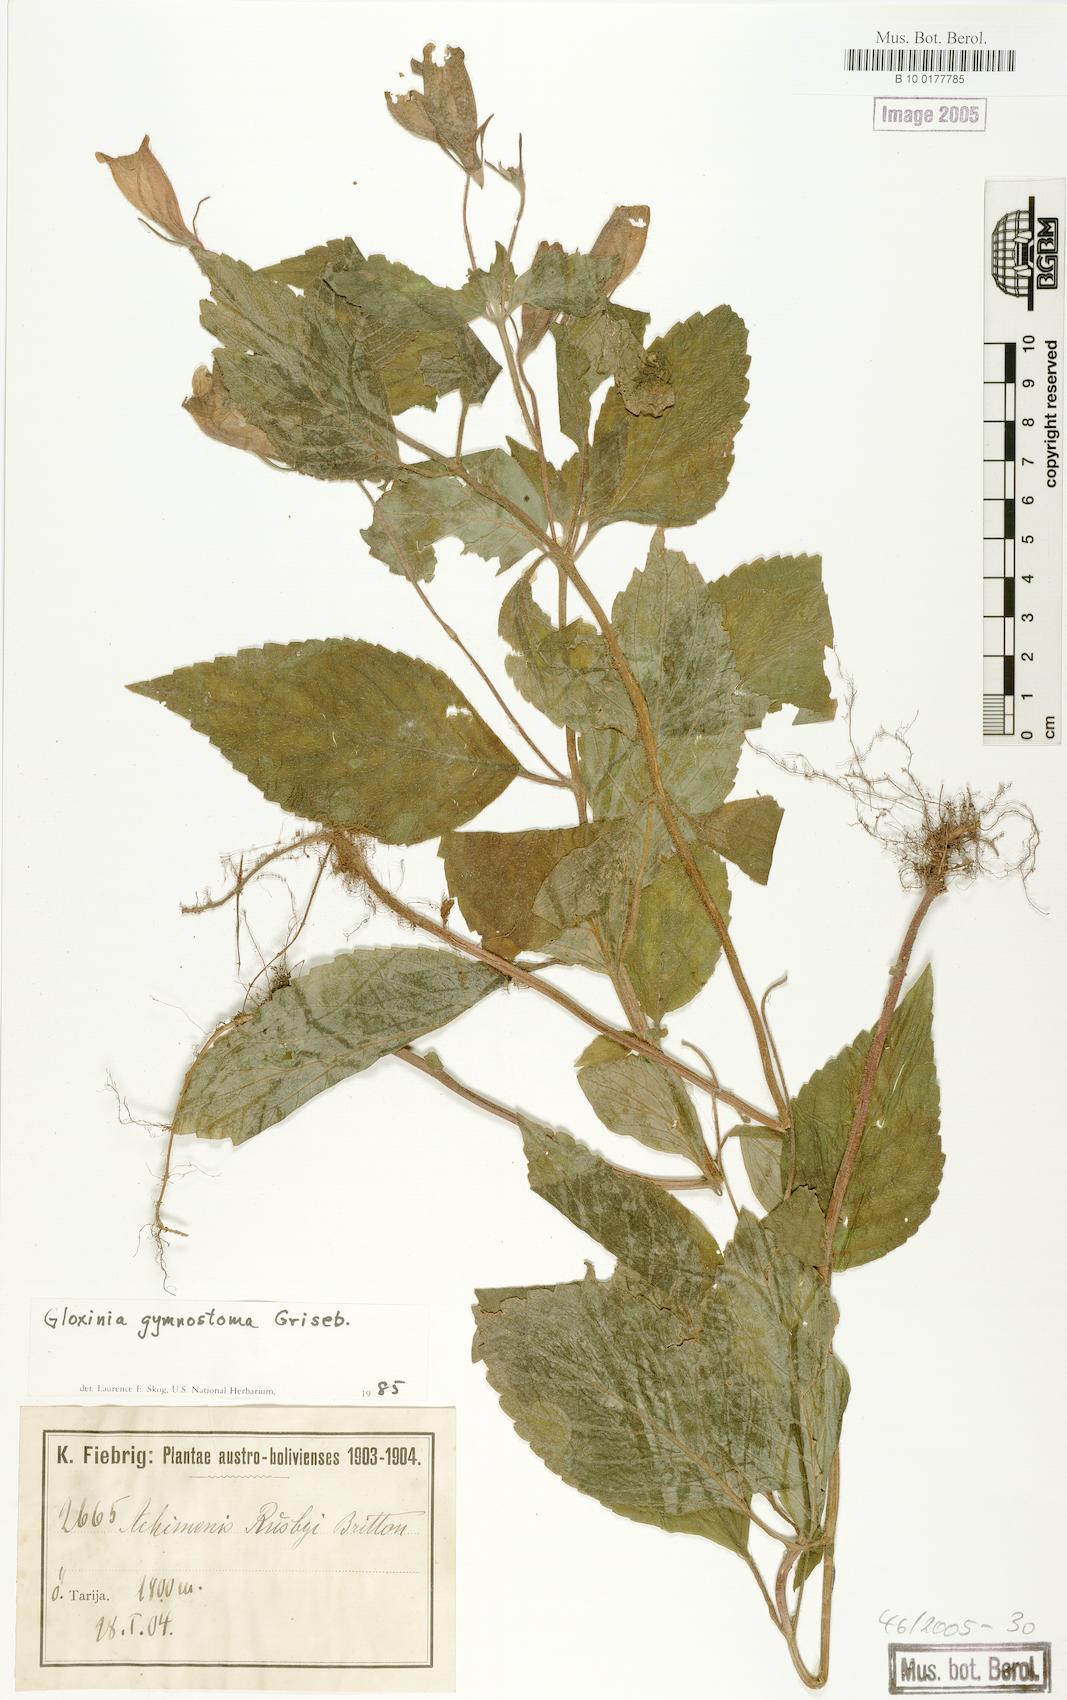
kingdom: Plantae
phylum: Tracheophyta
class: Magnoliopsida
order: Lamiales
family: Gesneriaceae
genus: Seemannia
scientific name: Seemannia gymnostoma
